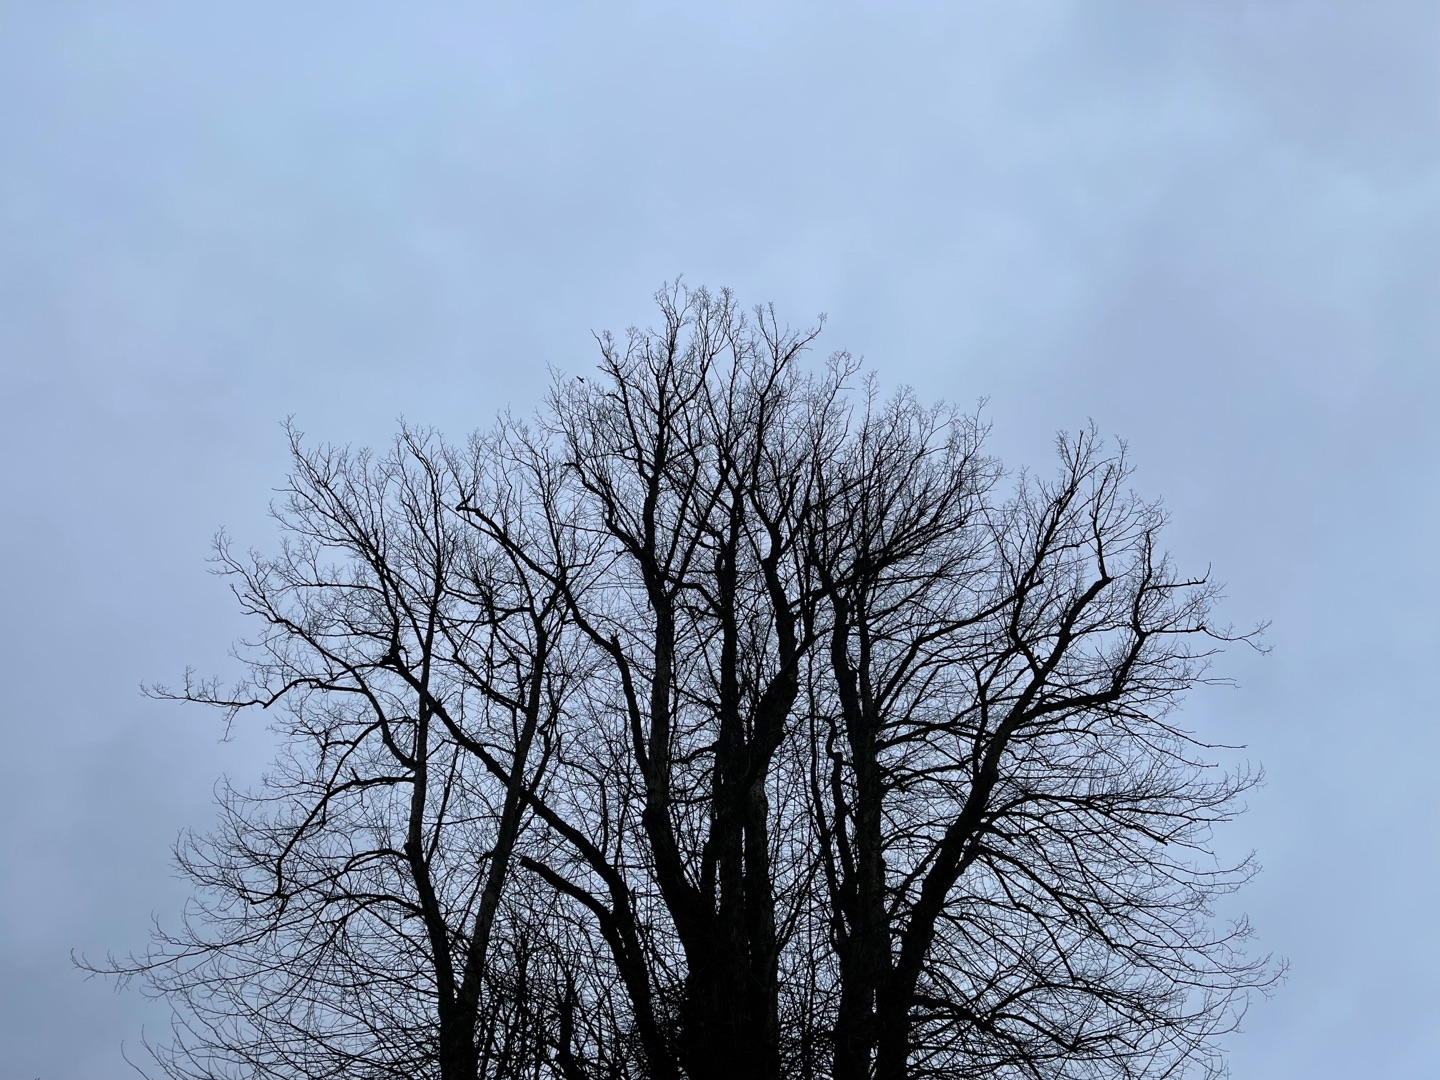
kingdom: Animalia
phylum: Chordata
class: Aves
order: Accipitriformes
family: Accipitridae
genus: Milvus
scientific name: Milvus milvus
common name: Rød glente
